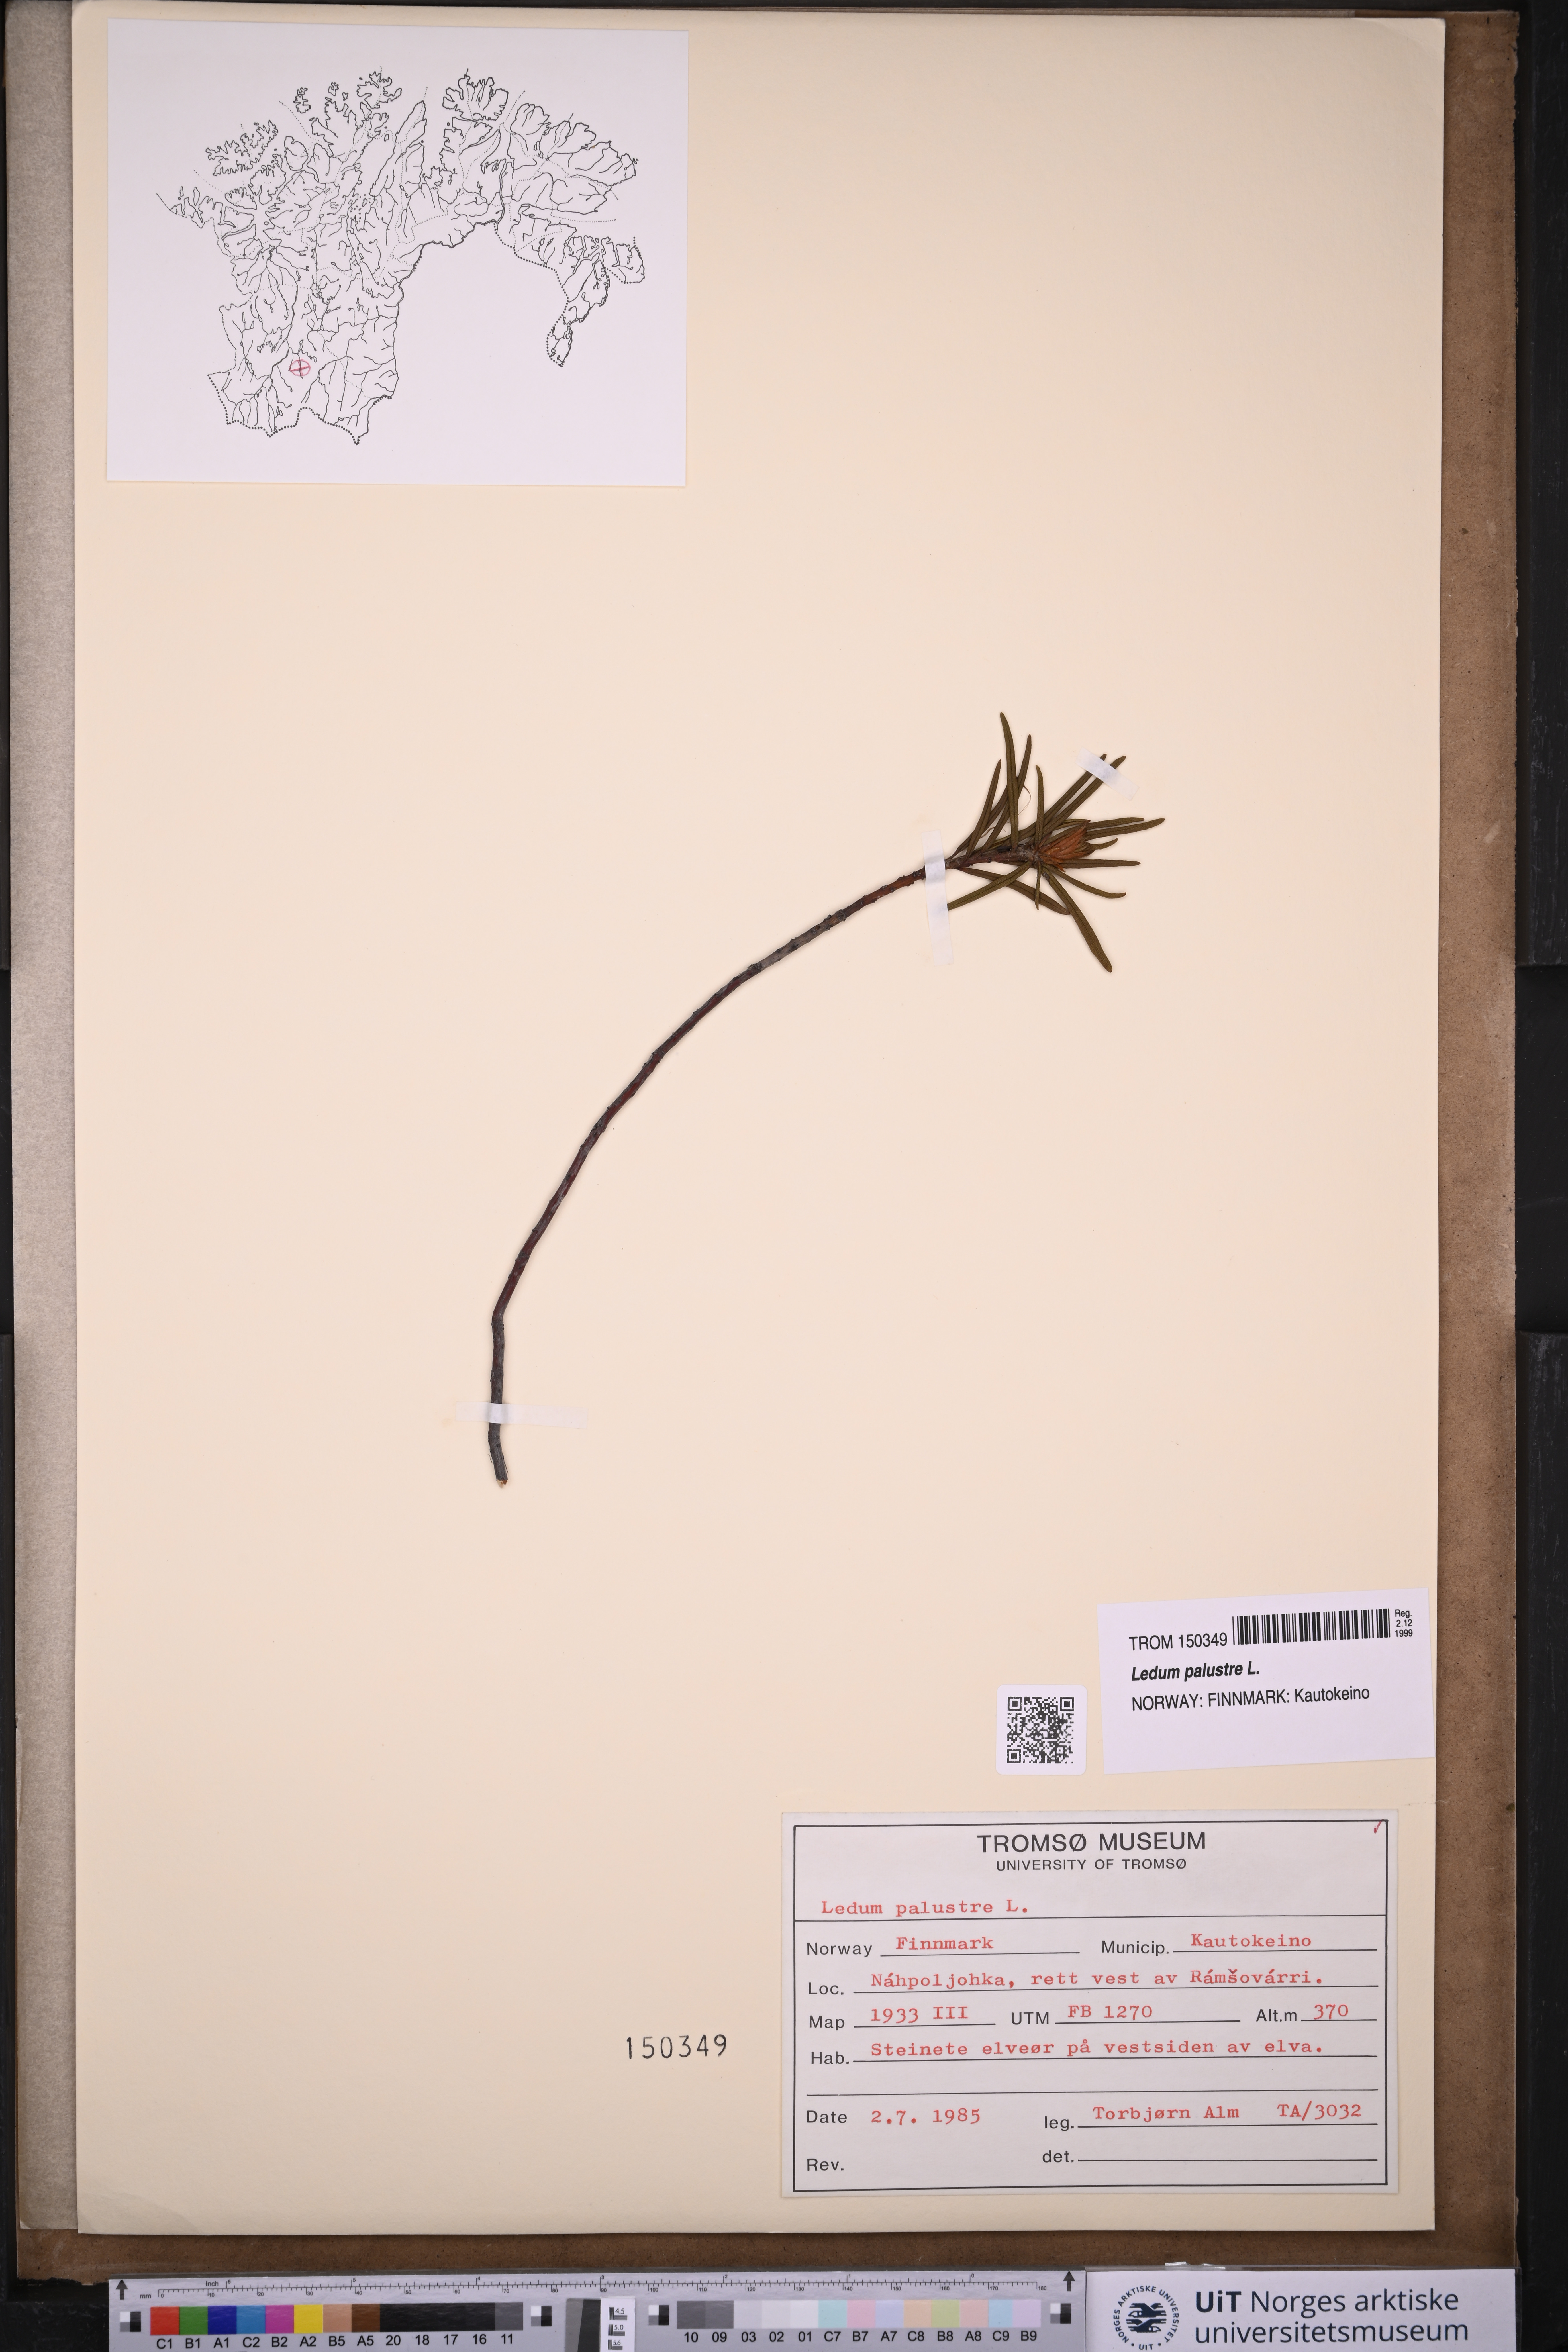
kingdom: Plantae
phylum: Tracheophyta
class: Magnoliopsida
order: Ericales
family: Ericaceae
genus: Rhododendron
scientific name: Rhododendron tomentosum
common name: Marsh labrador tea
